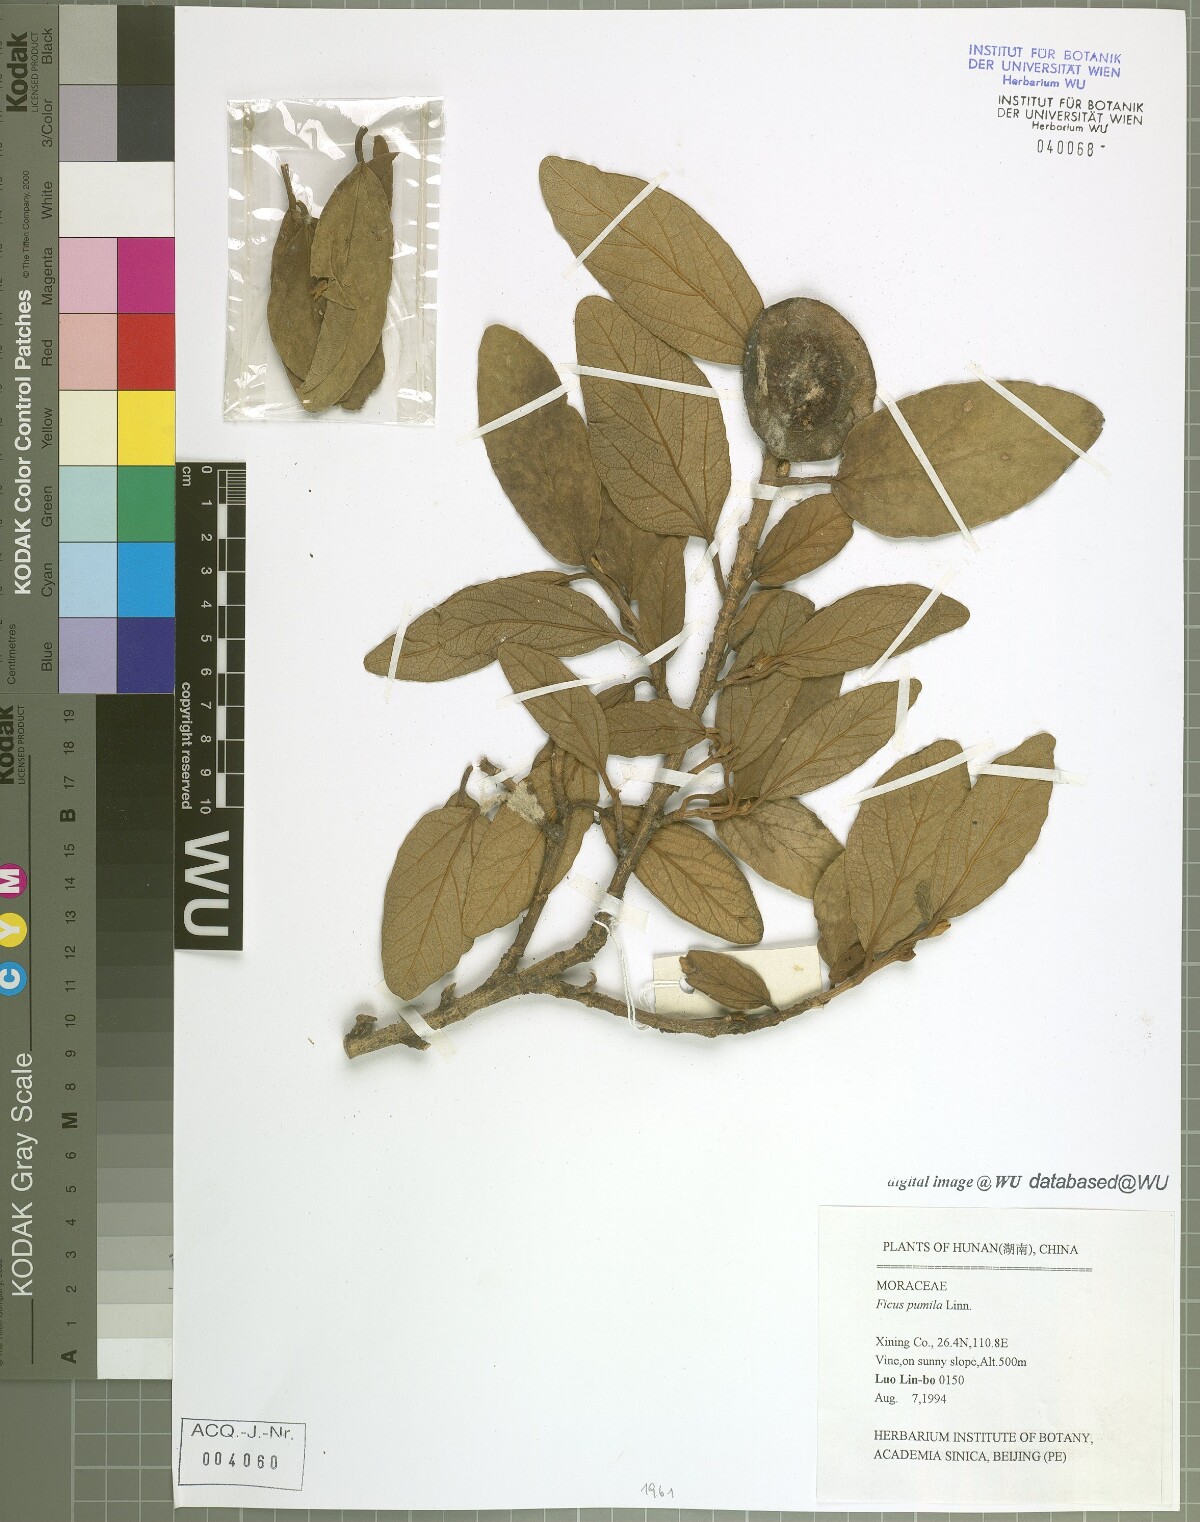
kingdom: Plantae
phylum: Tracheophyta
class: Magnoliopsida
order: Rosales
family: Moraceae
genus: Ficus
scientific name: Ficus pumila
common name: Climbingfig
